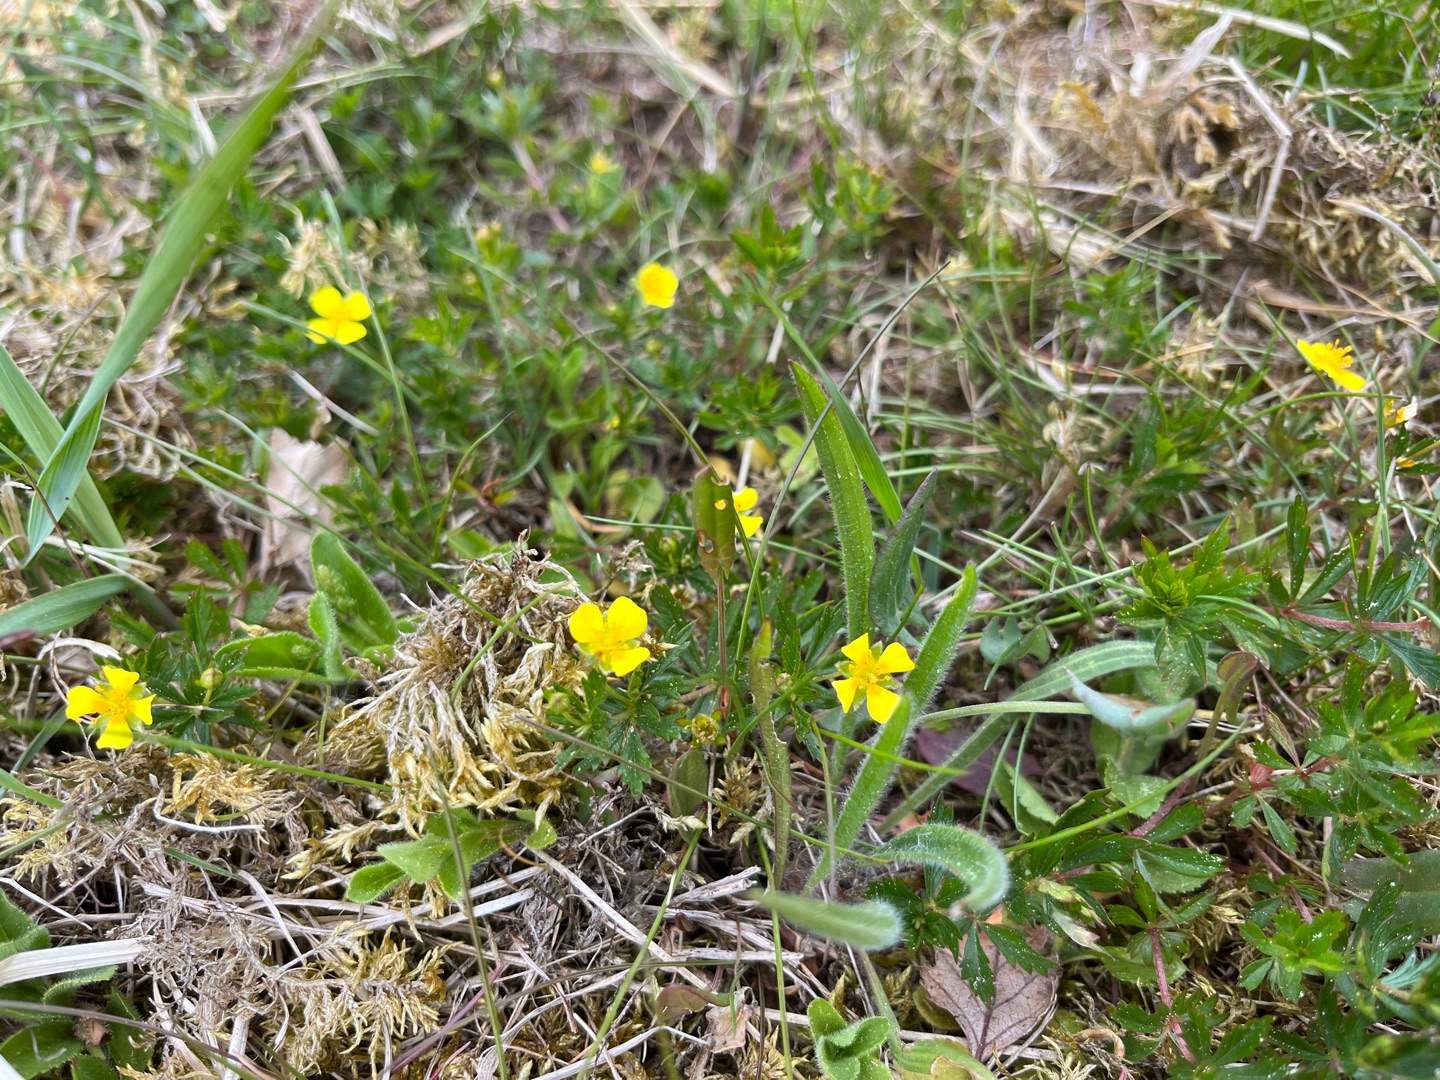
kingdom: Plantae
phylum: Tracheophyta
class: Magnoliopsida
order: Rosales
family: Rosaceae
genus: Potentilla
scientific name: Potentilla erecta
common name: Tormentil
